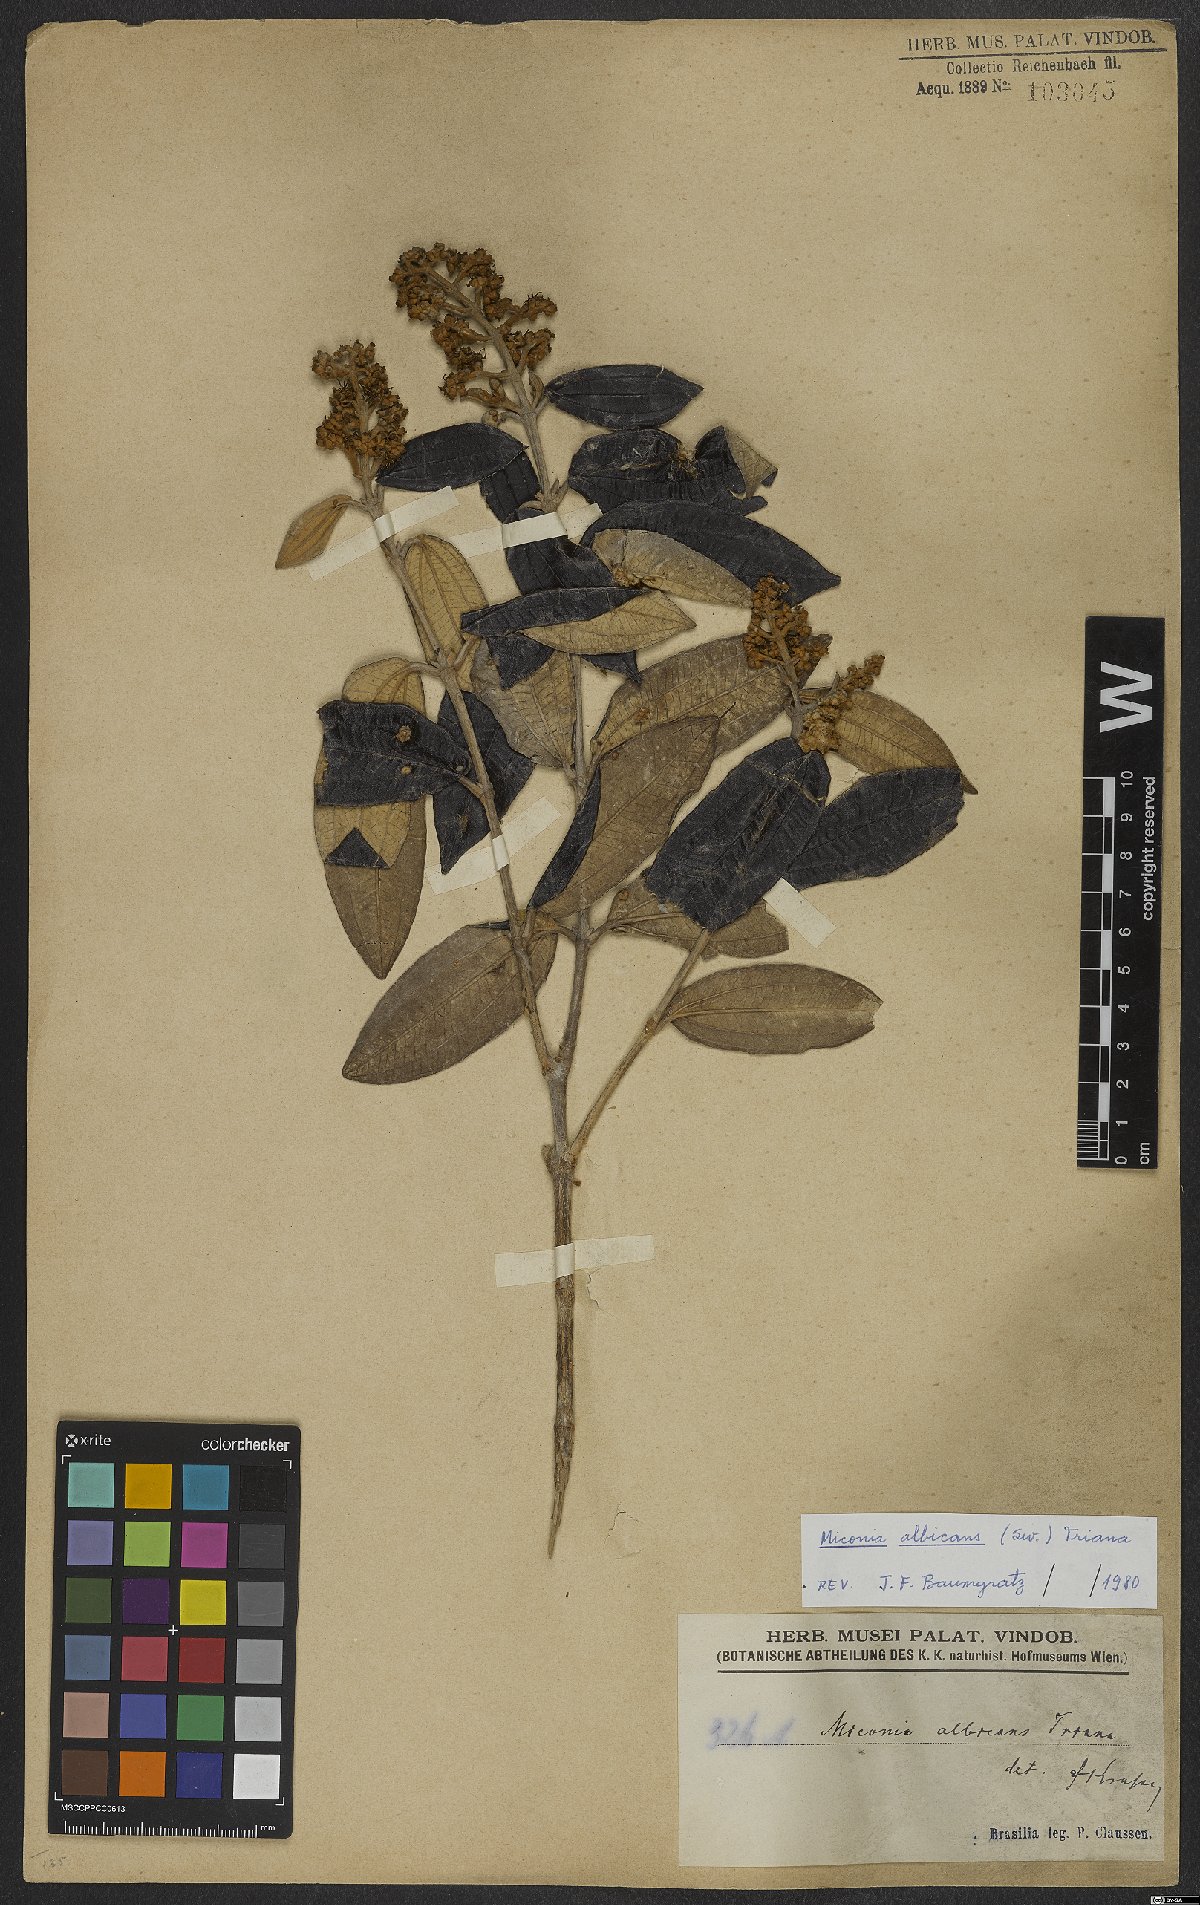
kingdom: Plantae
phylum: Tracheophyta
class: Magnoliopsida
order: Myrtales
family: Melastomataceae
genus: Miconia
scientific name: Miconia albicans
